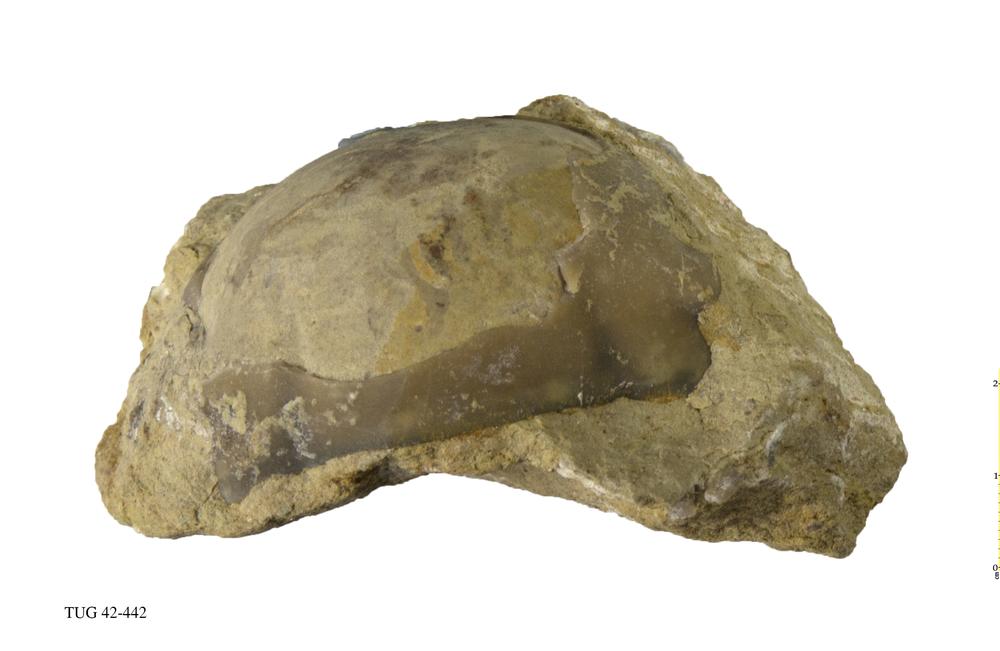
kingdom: Animalia
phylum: Arthropoda
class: Trilobita
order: Asaphida
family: Asaphidae
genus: Asaphus
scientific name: Asaphus
